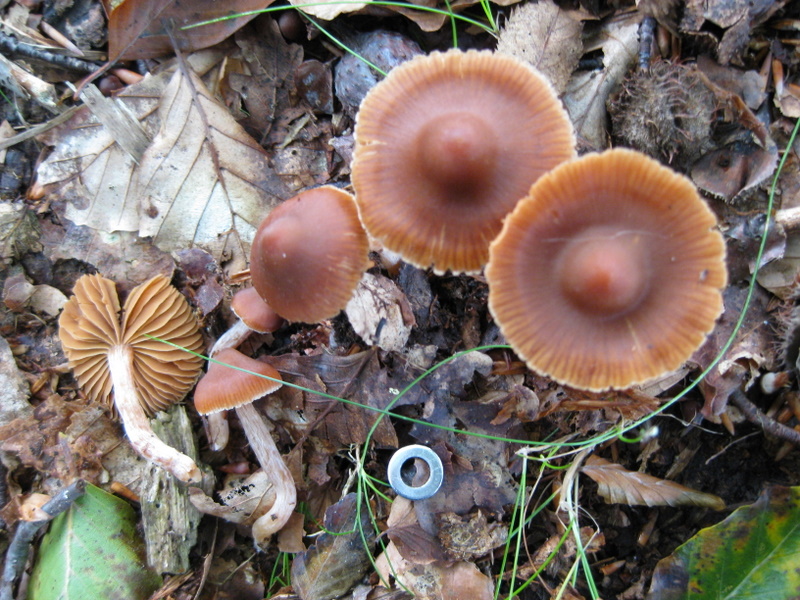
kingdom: Fungi
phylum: Basidiomycota
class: Agaricomycetes
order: Agaricales
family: Cortinariaceae
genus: Cortinarius
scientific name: Cortinarius
